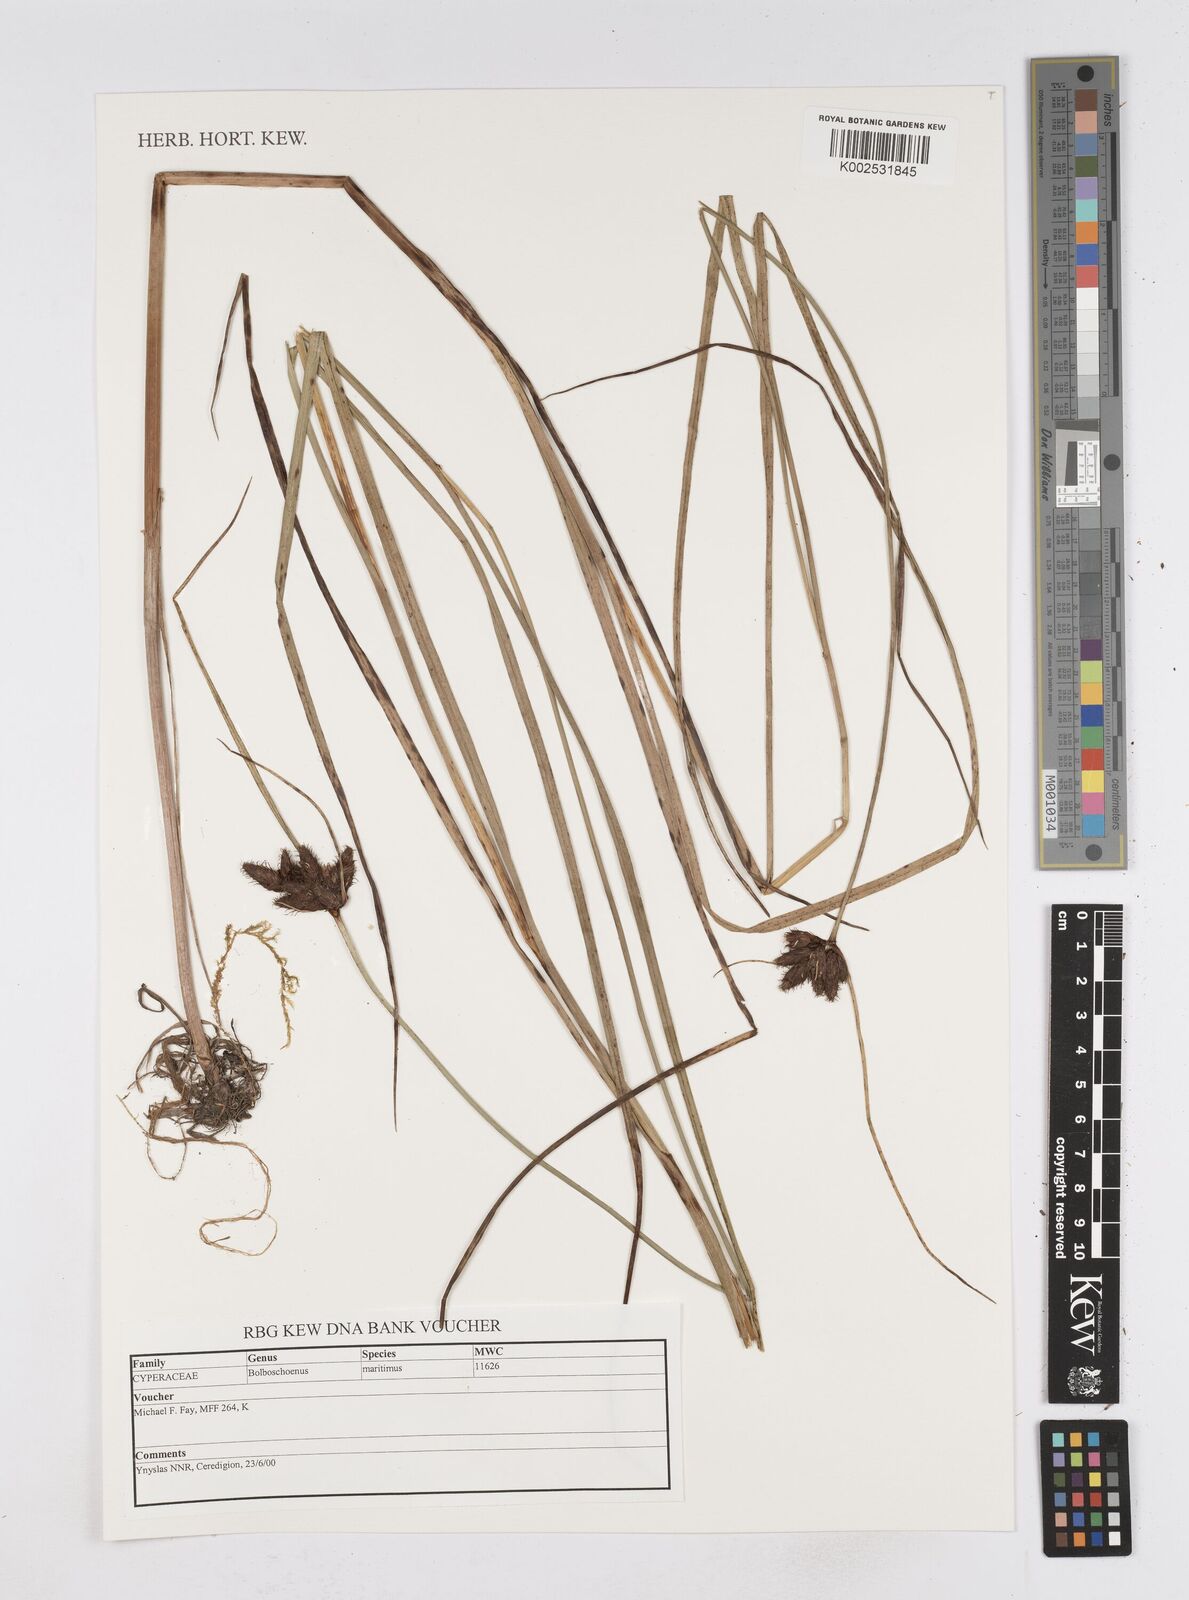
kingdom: Plantae
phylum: Tracheophyta
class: Liliopsida
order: Poales
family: Cyperaceae
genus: Bolboschoenus
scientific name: Bolboschoenus maritimus
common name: Sea club-rush
